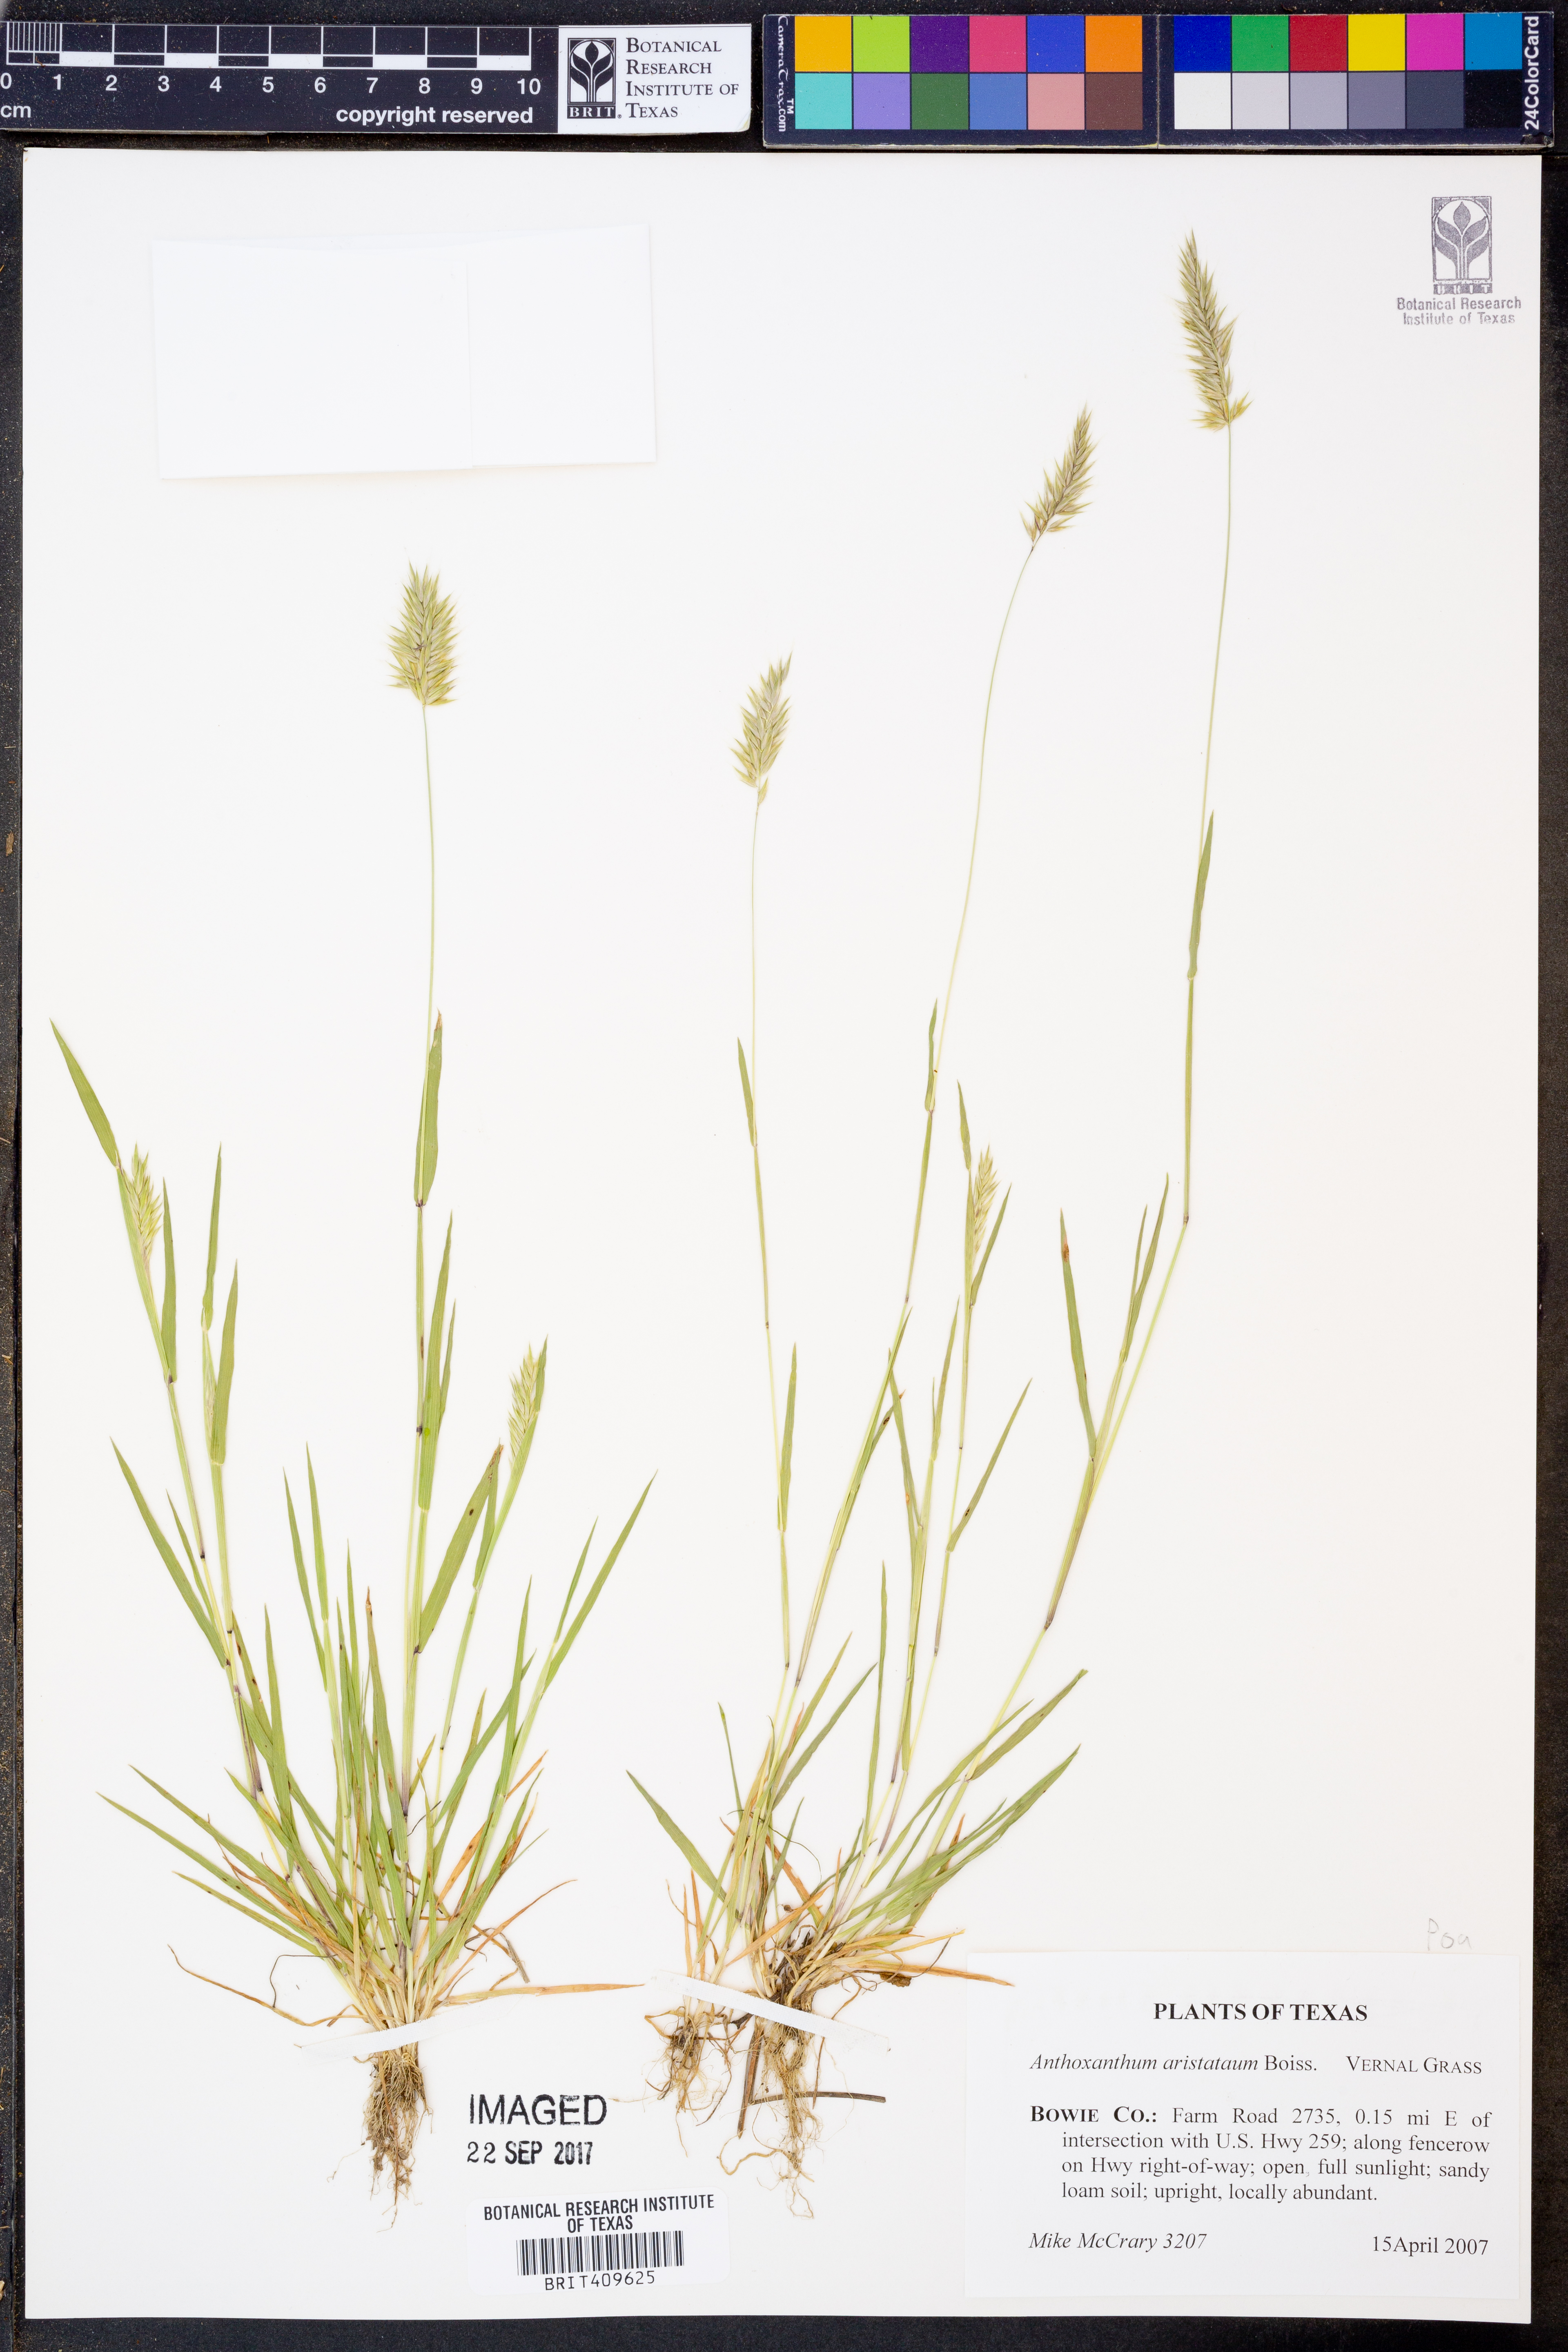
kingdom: Plantae
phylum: Tracheophyta
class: Liliopsida
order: Poales
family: Poaceae
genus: Anthoxanthum
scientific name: Anthoxanthum aristatum
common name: Annual vernal-grass
